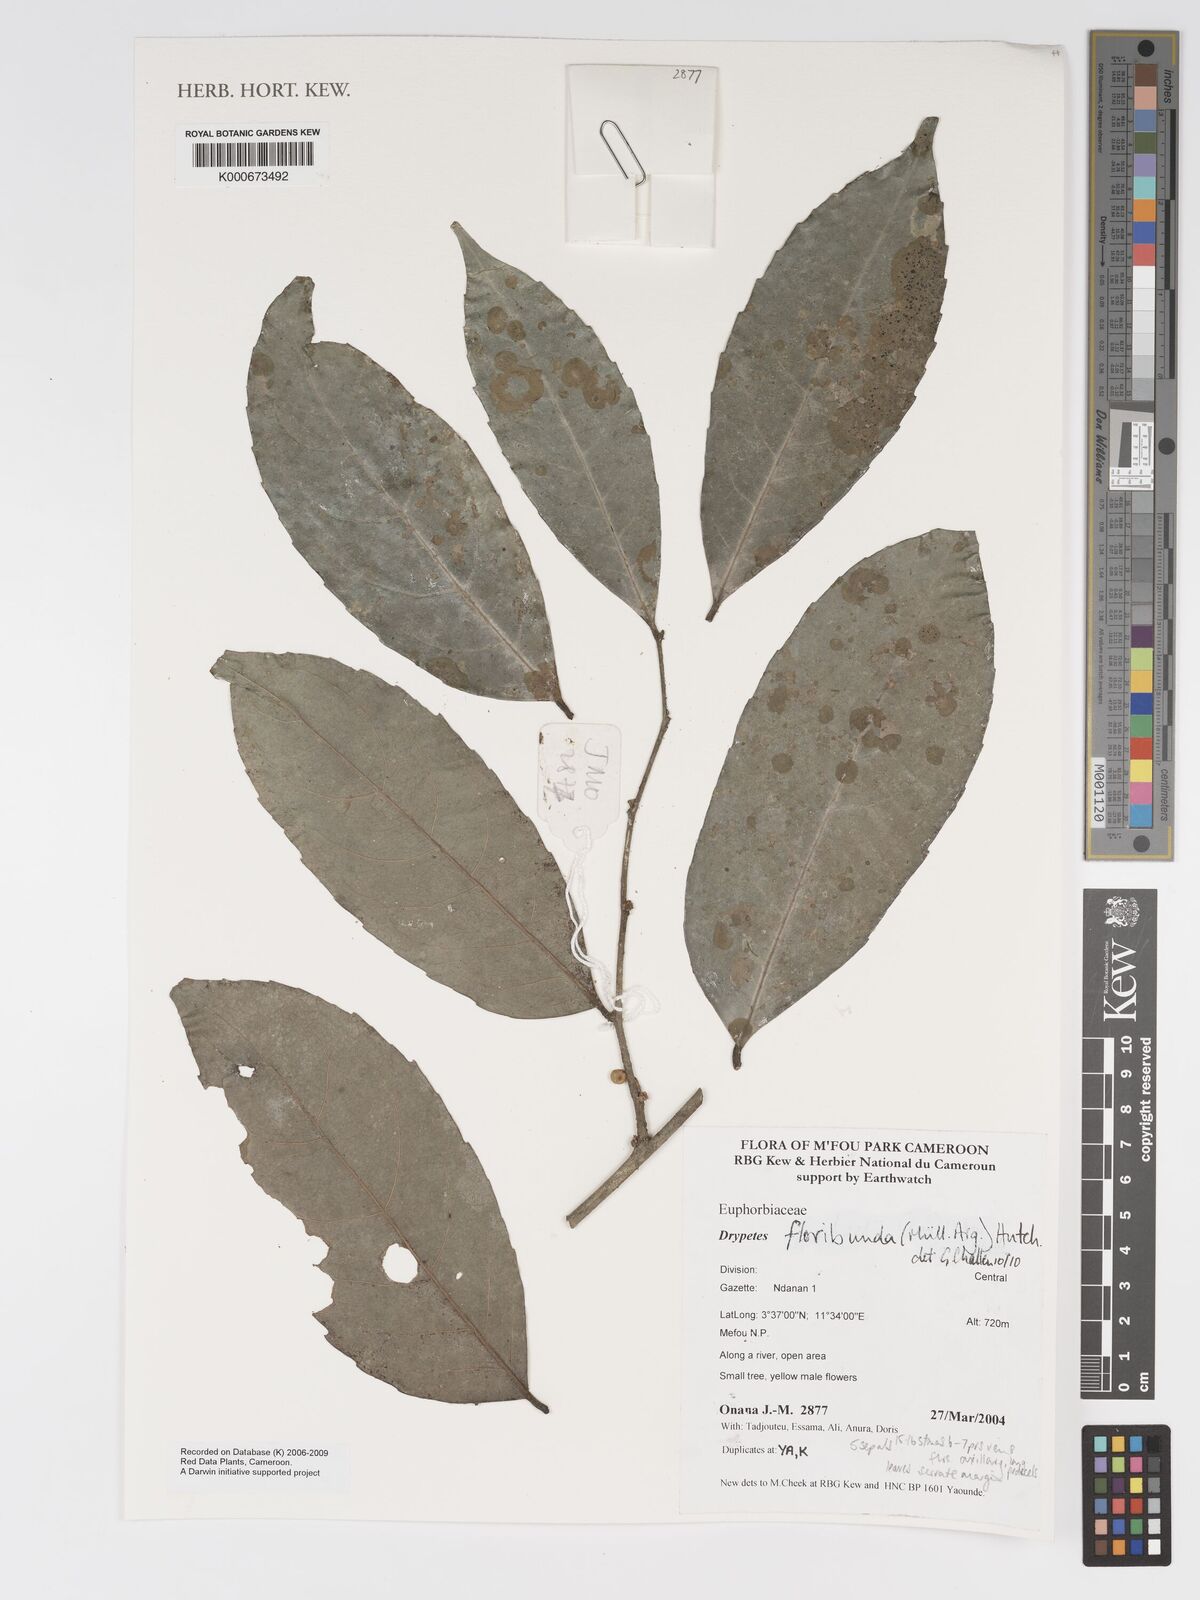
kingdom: Plantae
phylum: Tracheophyta
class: Magnoliopsida
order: Malpighiales
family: Putranjivaceae
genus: Drypetes
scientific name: Drypetes
